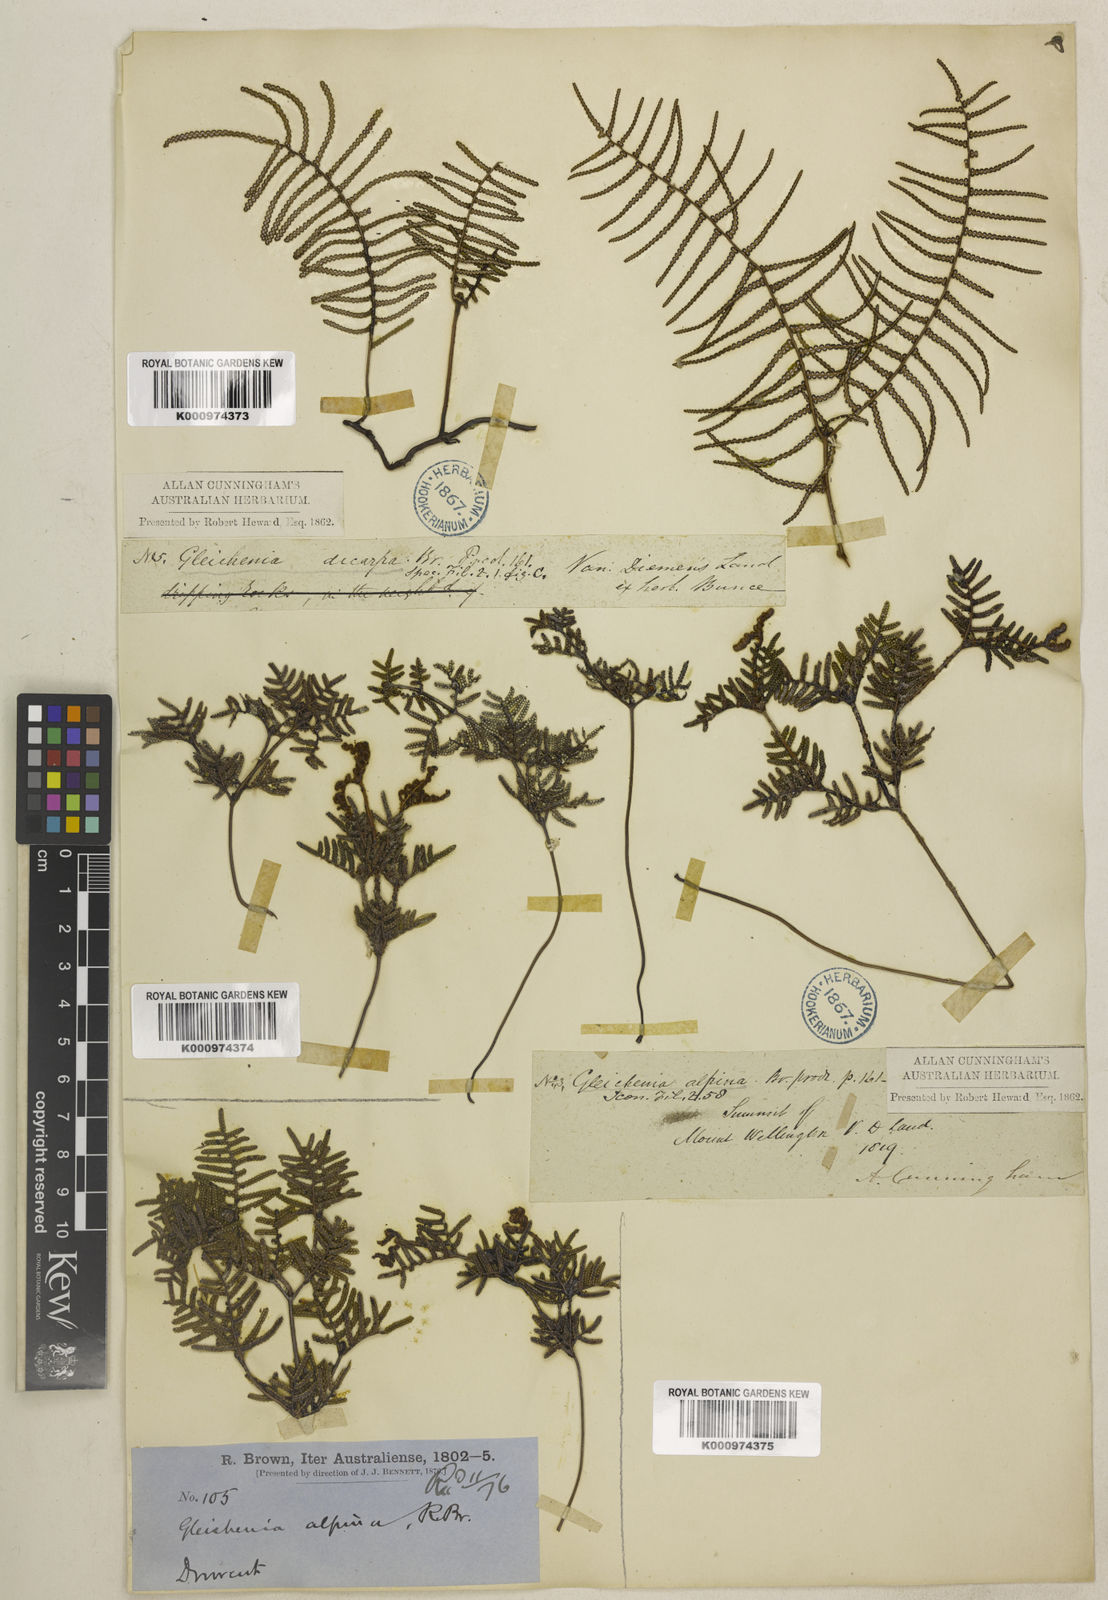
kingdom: Plantae
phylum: Tracheophyta
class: Polypodiopsida
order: Gleicheniales
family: Gleicheniaceae
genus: Gleichenia
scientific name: Gleichenia alpina
